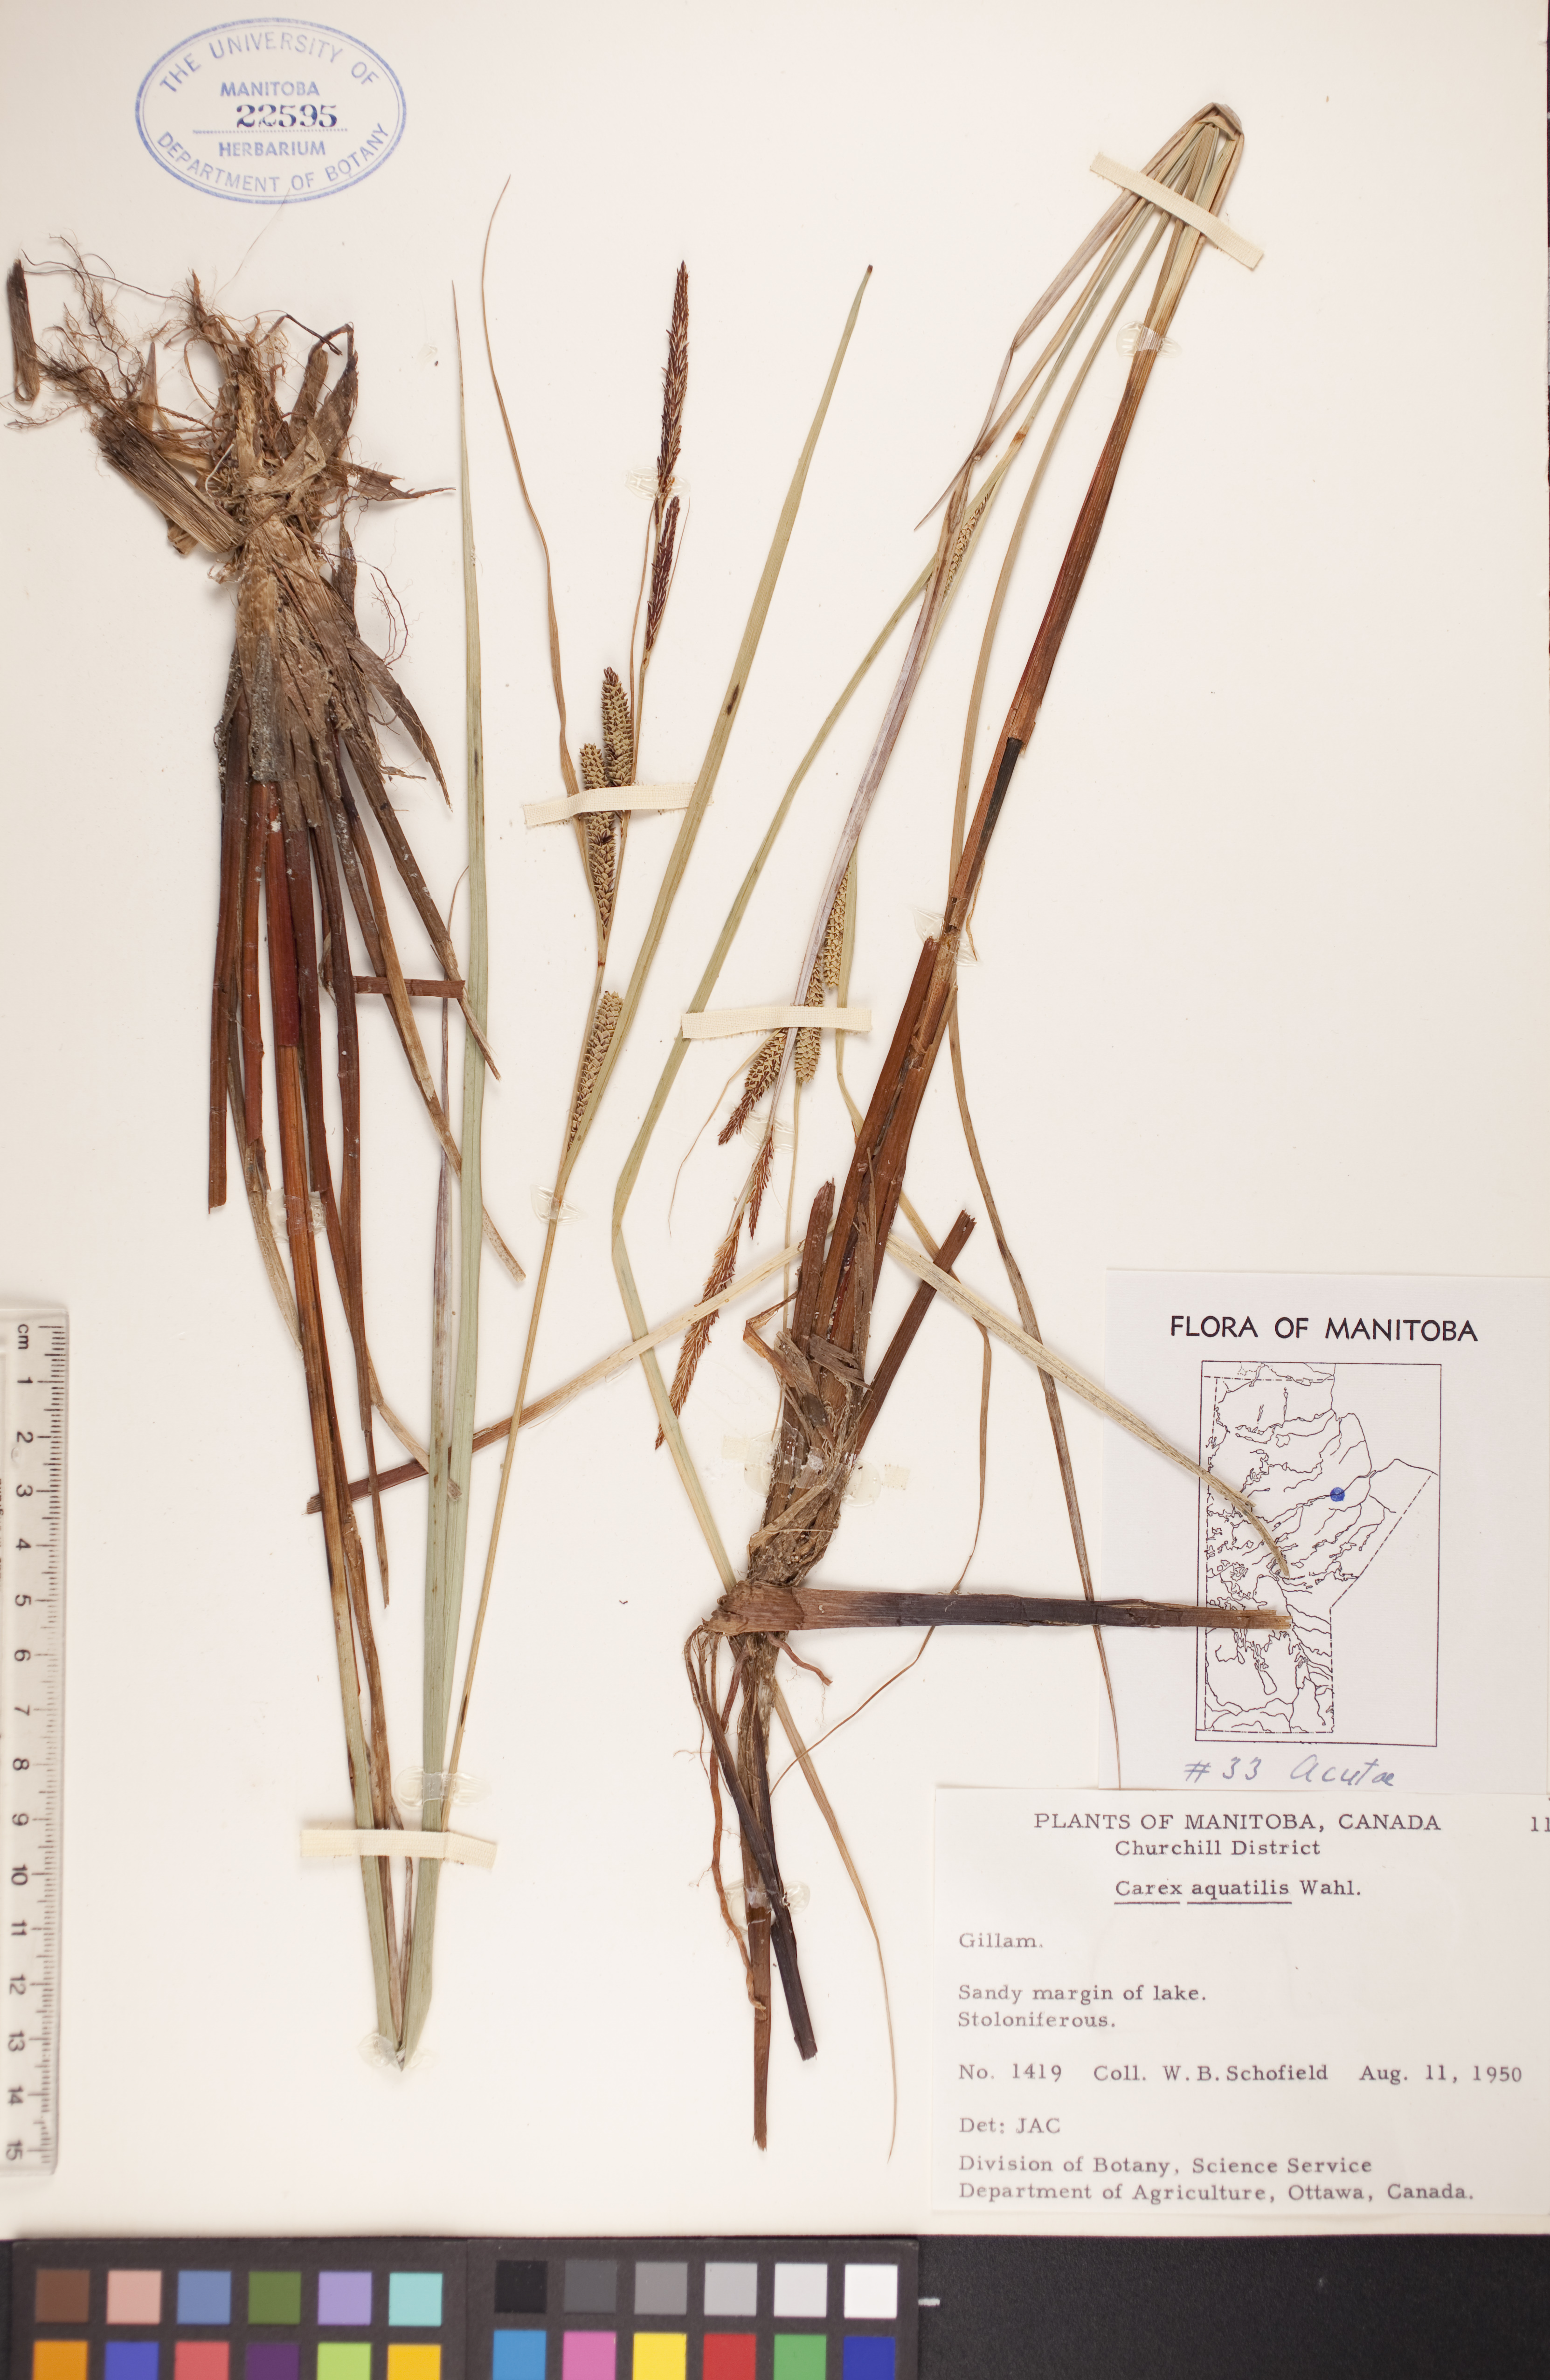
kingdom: Plantae
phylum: Tracheophyta
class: Liliopsida
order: Poales
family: Cyperaceae
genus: Carex
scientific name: Carex aquatilis
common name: Water sedge
